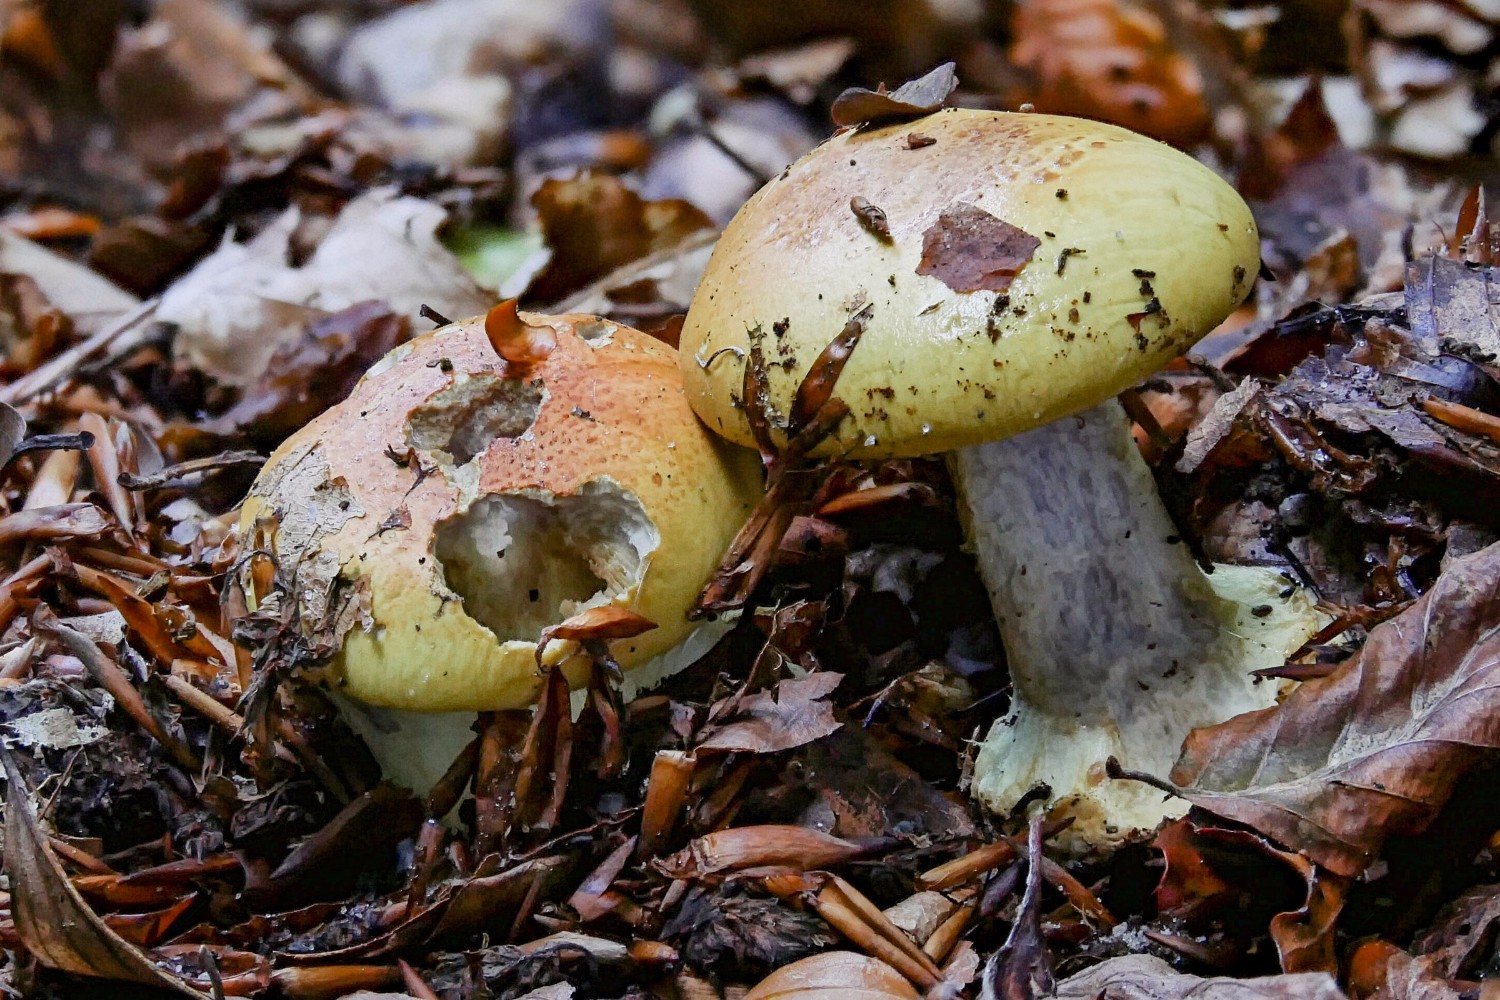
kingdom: Fungi
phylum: Basidiomycota
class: Agaricomycetes
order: Agaricales
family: Cortinariaceae
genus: Cortinarius
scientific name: Cortinarius bergeronii
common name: prægtig slørhat
